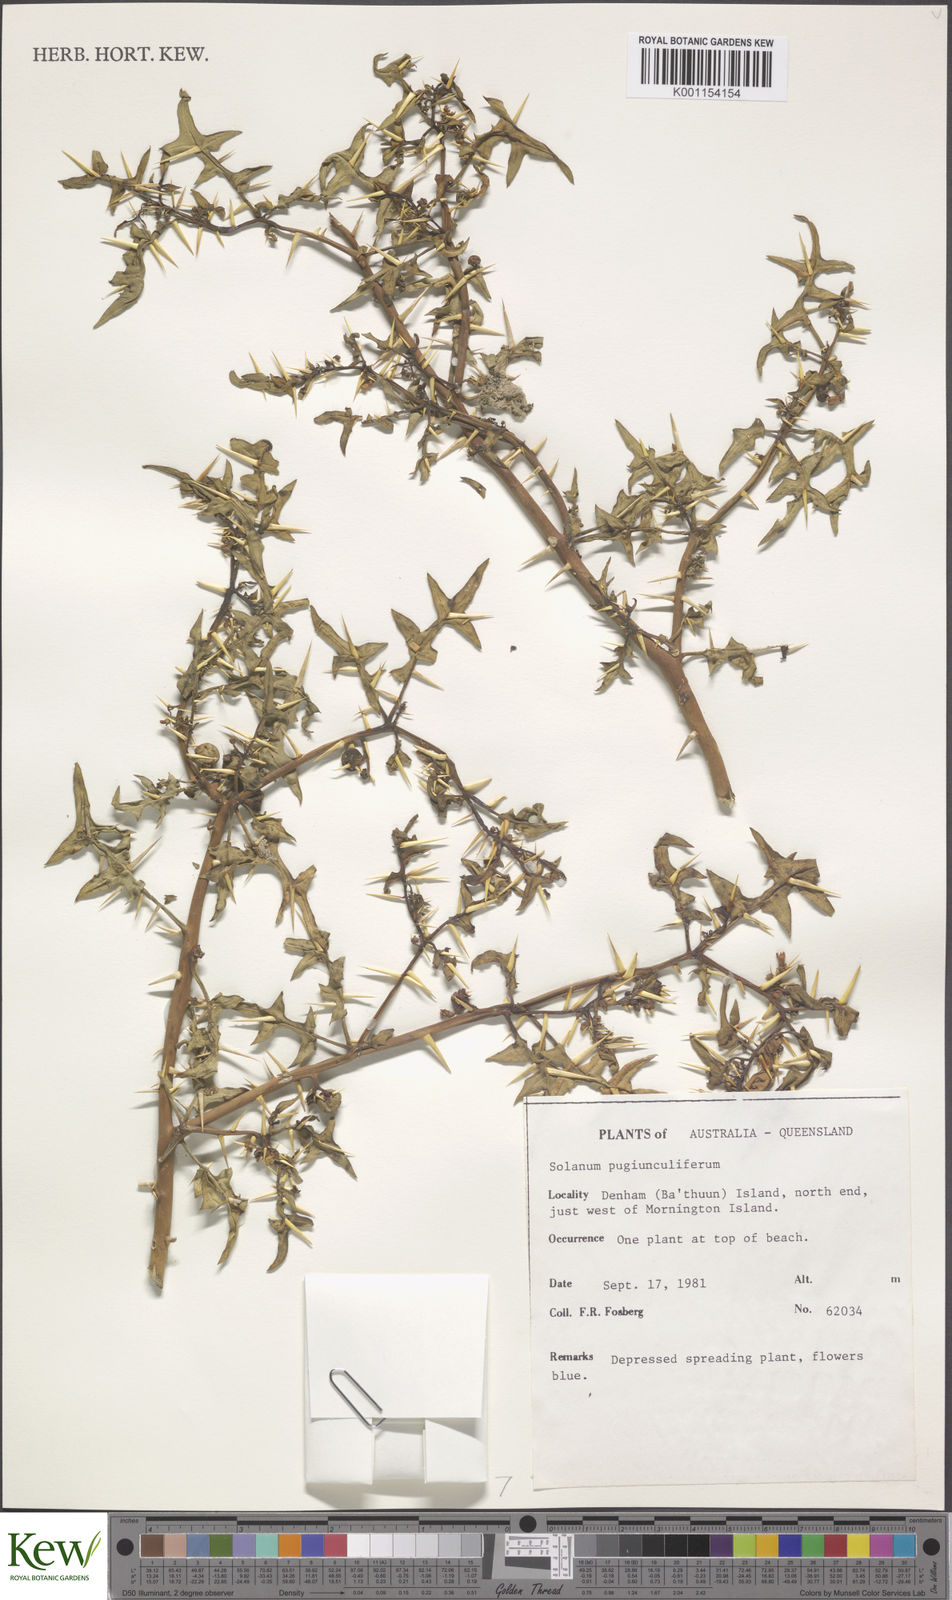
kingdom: Plantae
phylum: Tracheophyta
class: Magnoliopsida
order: Solanales
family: Solanaceae
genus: Solanum
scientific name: Solanum pugiunculiferum
